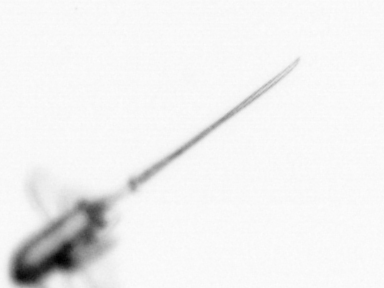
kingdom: Animalia
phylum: Arthropoda
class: Copepoda
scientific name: Copepoda
